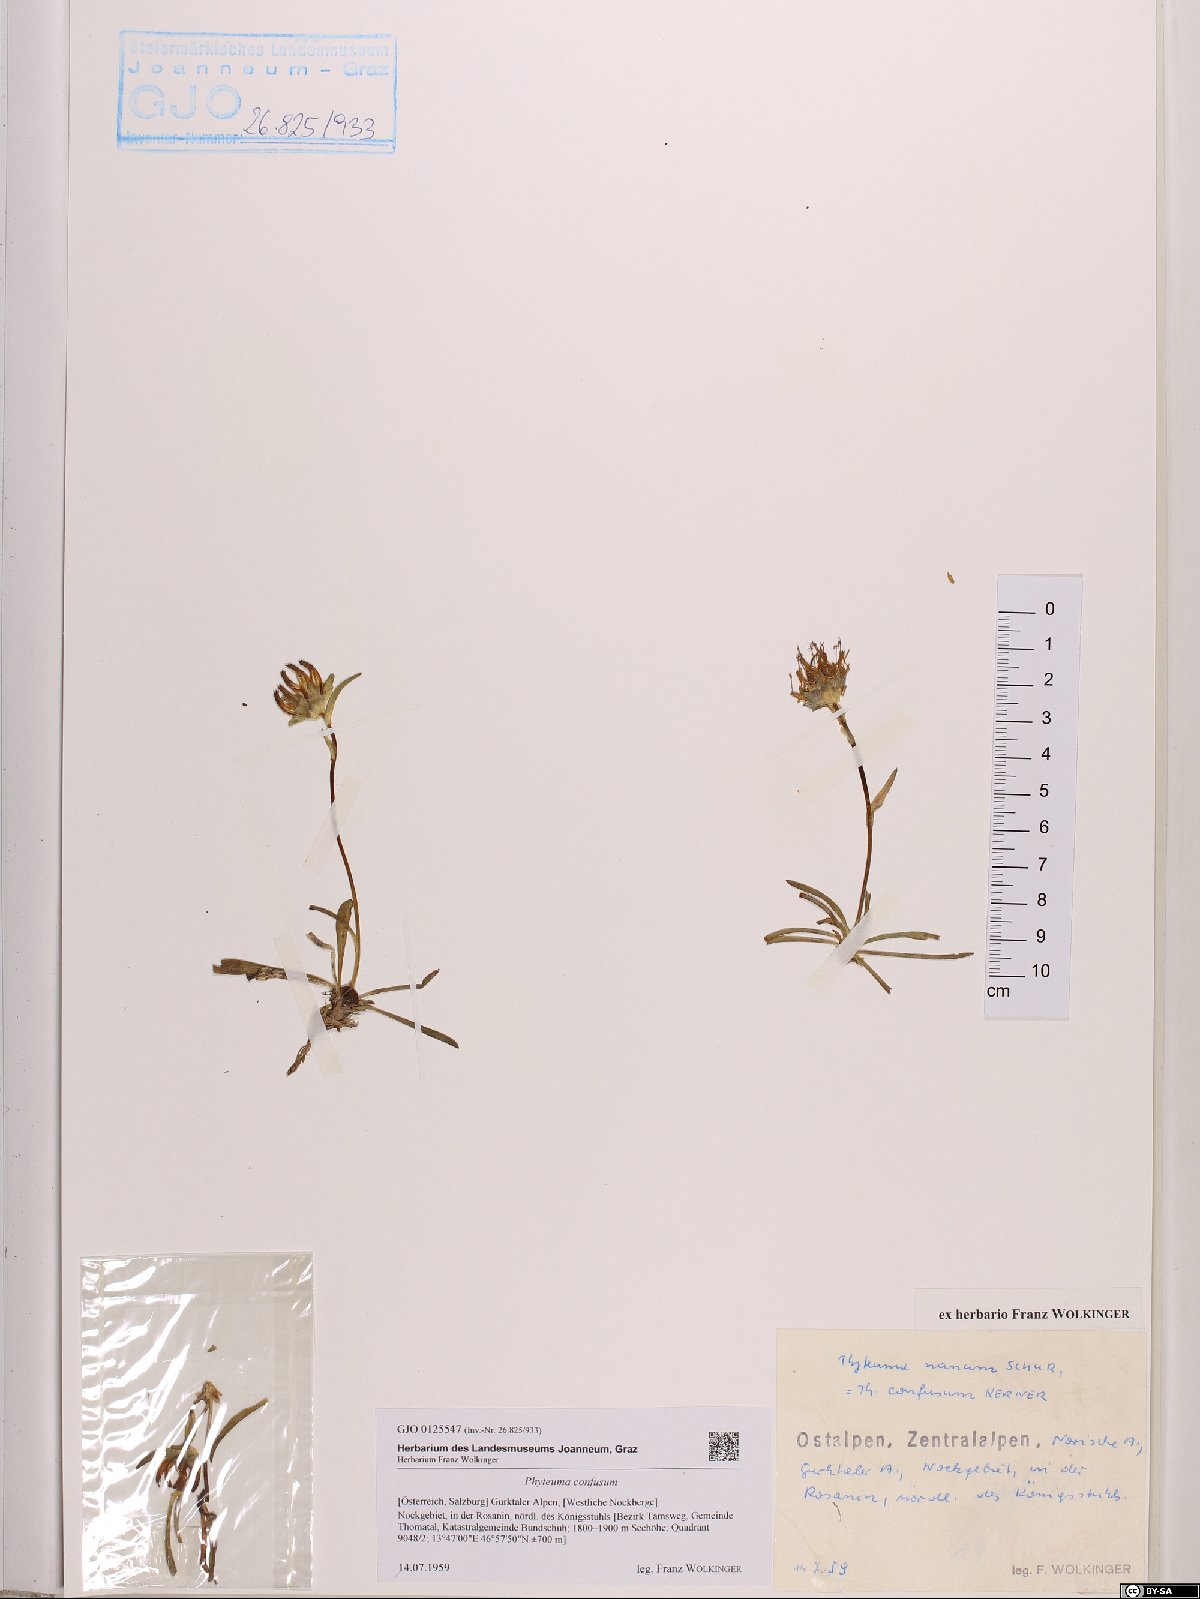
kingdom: Plantae
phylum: Tracheophyta
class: Magnoliopsida
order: Asterales
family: Campanulaceae
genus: Phyteuma
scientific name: Phyteuma confusum
